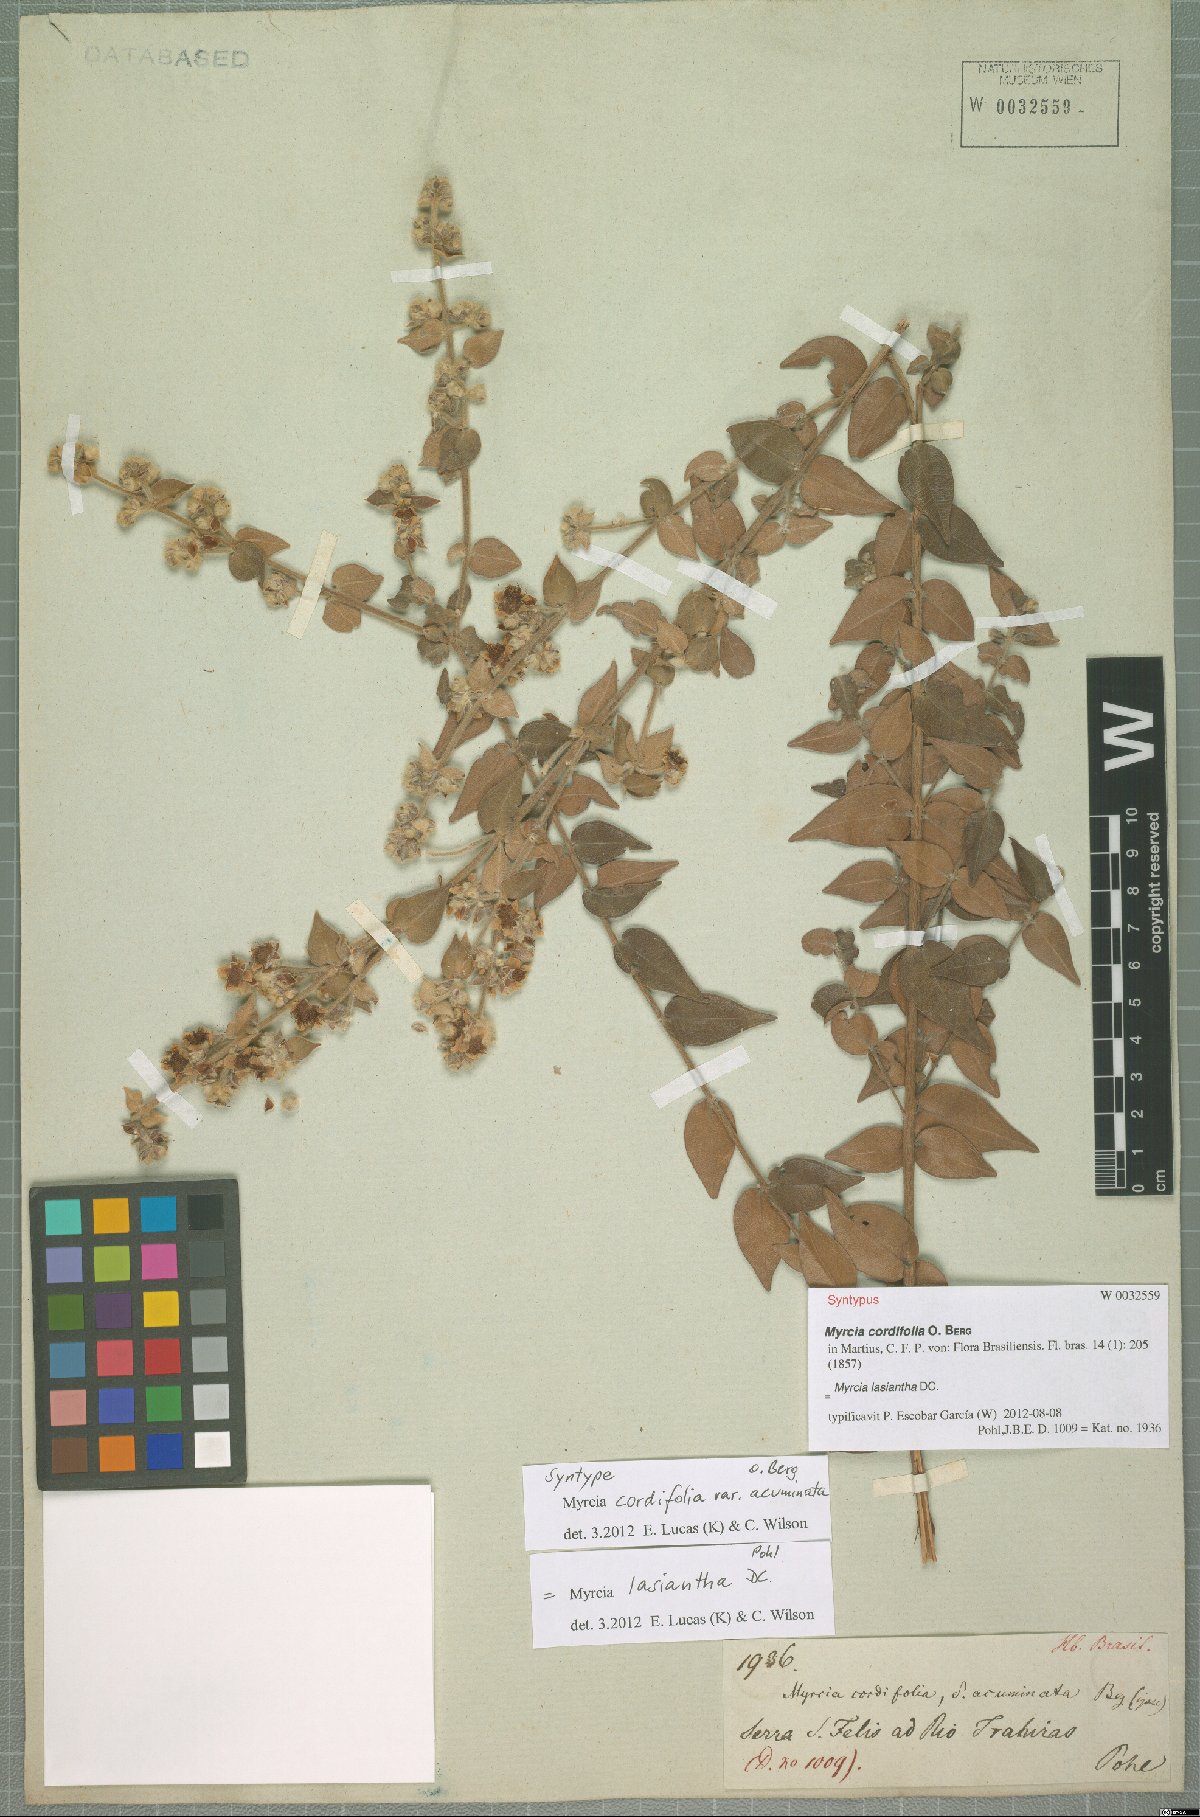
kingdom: Plantae
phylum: Tracheophyta
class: Magnoliopsida
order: Myrtales
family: Myrtaceae
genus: Myrcia
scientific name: Myrcia lasiantha
